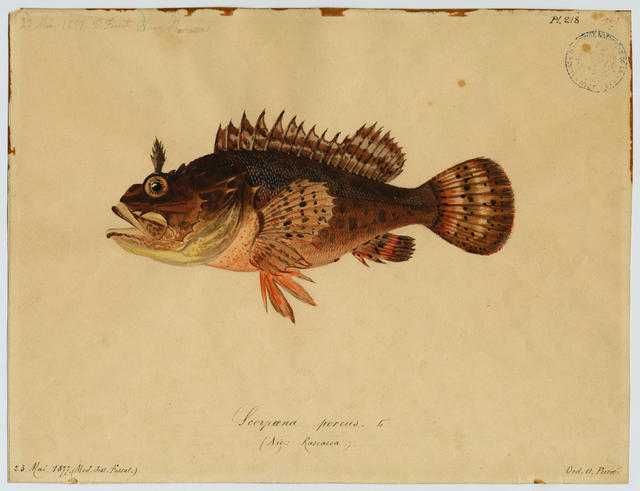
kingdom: Animalia
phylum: Chordata
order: Scorpaeniformes
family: Scorpaenidae
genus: Scorpaena
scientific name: Scorpaena porcus
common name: Black scorpionfish
